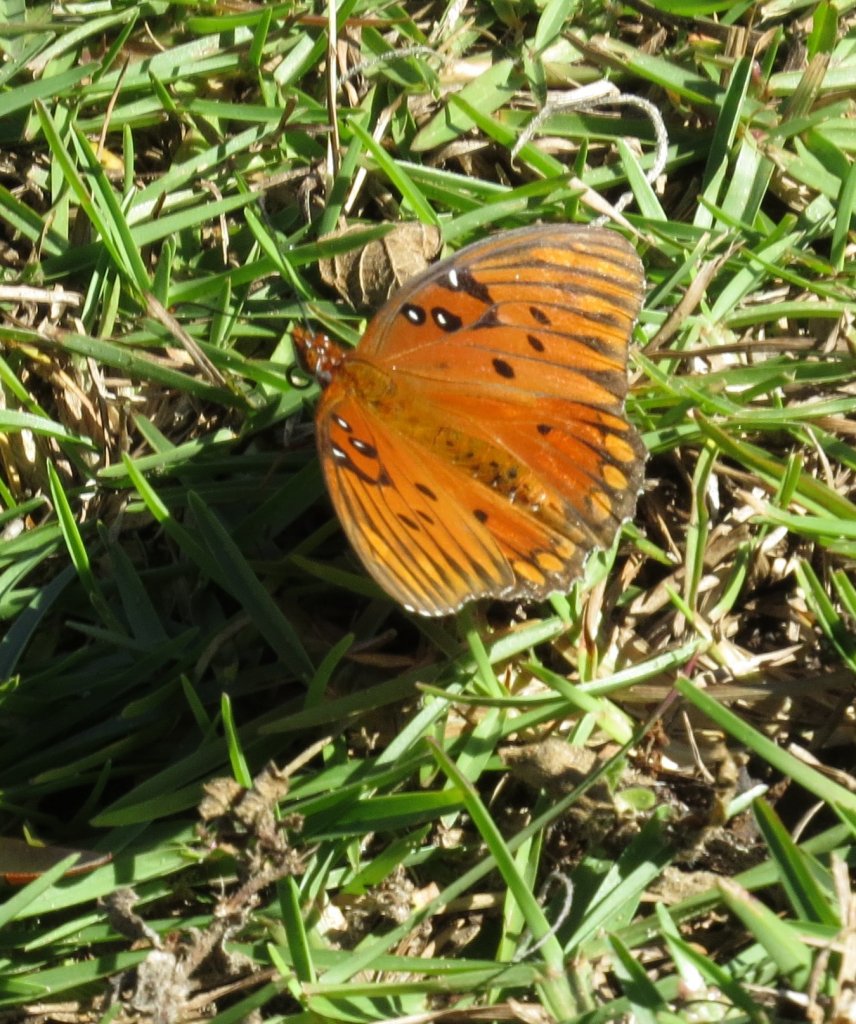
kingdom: Animalia
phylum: Arthropoda
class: Insecta
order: Lepidoptera
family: Nymphalidae
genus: Dione
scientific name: Dione vanillae
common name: Gulf Fritillary
